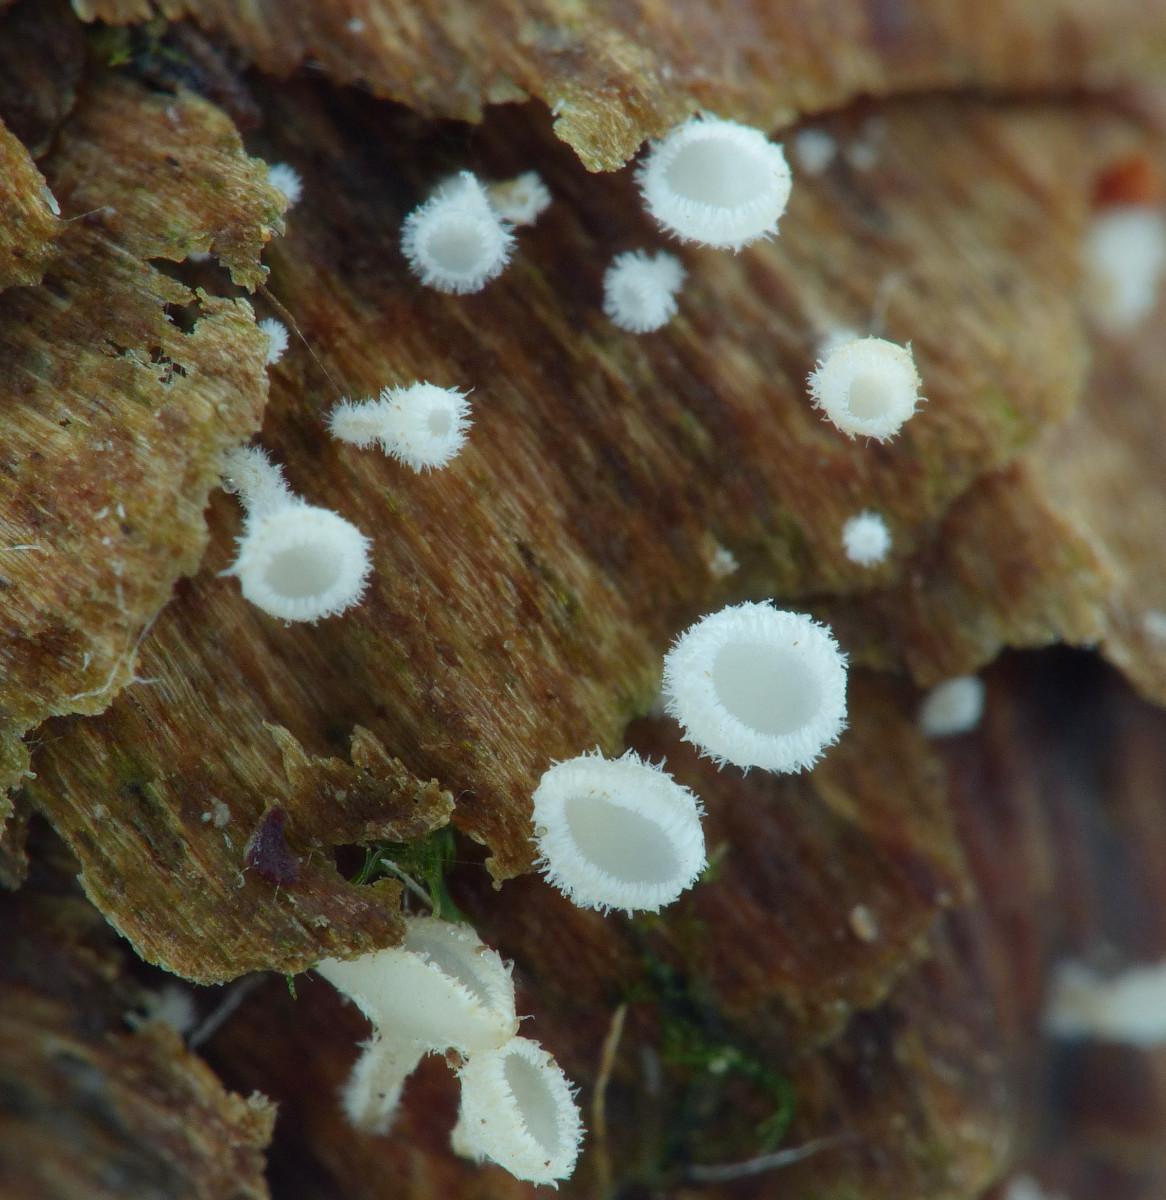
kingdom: Fungi
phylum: Ascomycota
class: Leotiomycetes
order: Helotiales
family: Lachnaceae
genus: Lachnum
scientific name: Lachnum virgineum
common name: jomfru-frynseskive
